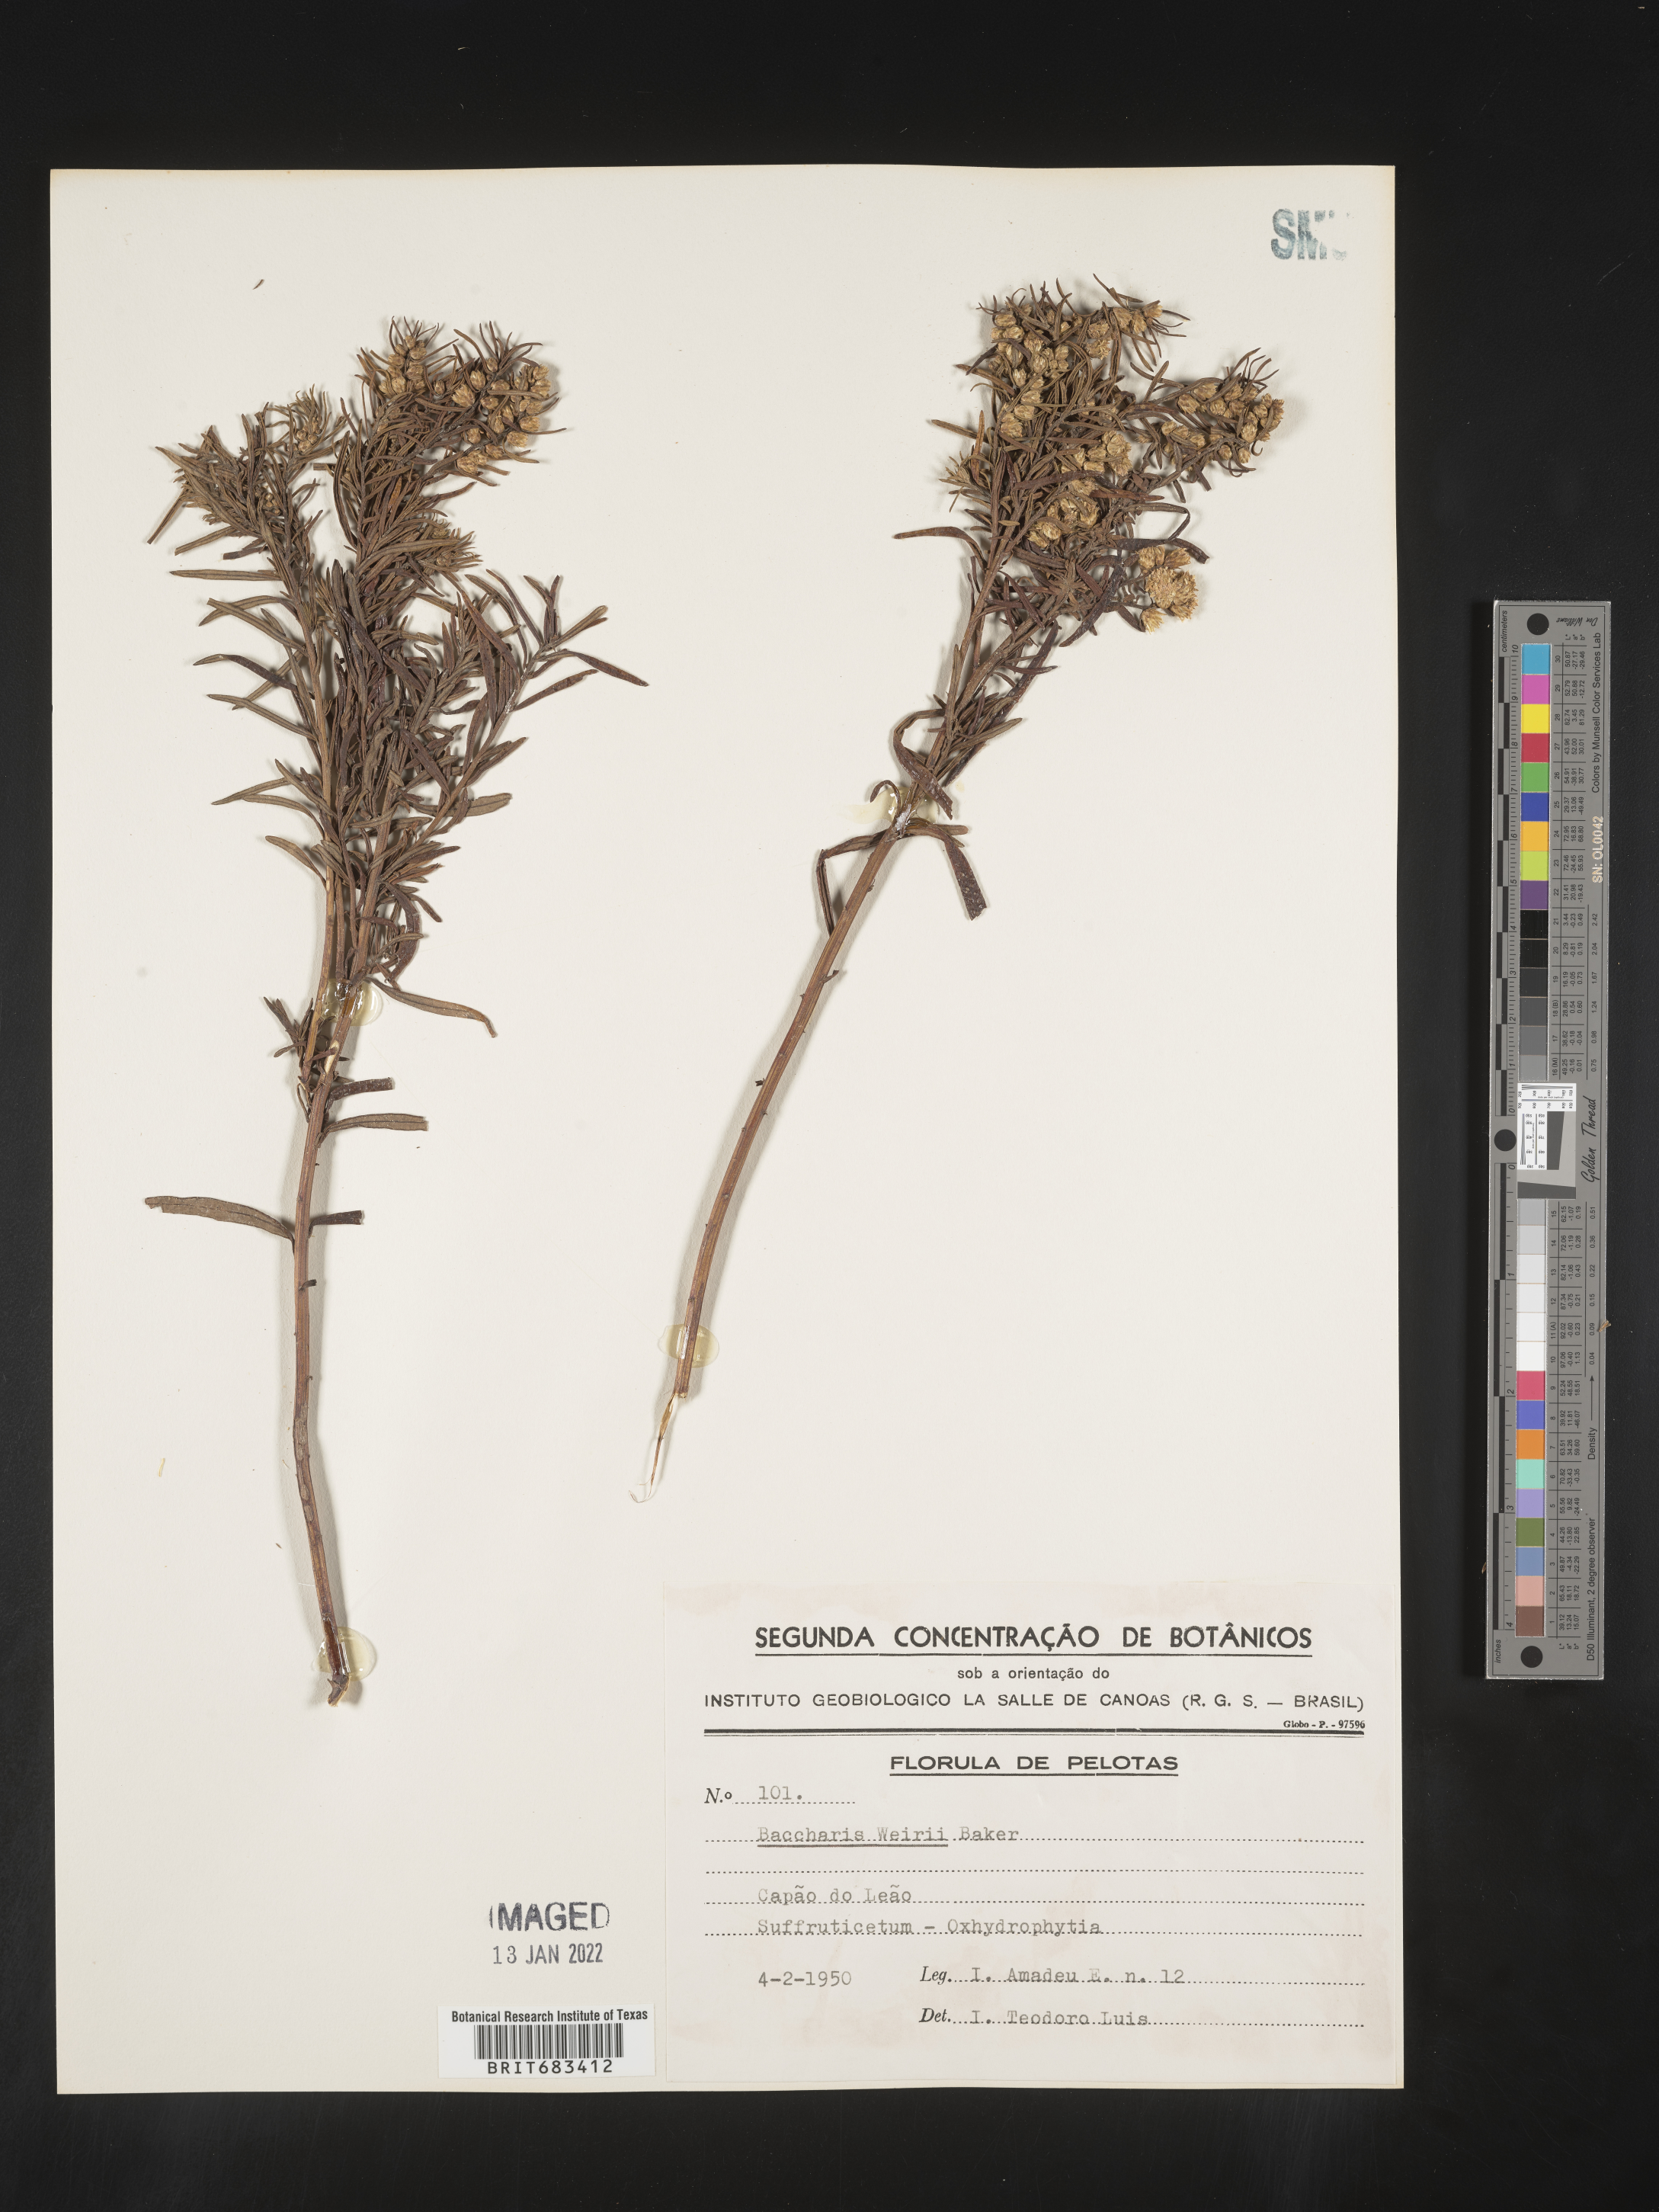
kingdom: Plantae
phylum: Tracheophyta
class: Magnoliopsida
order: Asterales
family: Asteraceae
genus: Baccharis
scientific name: Baccharis
